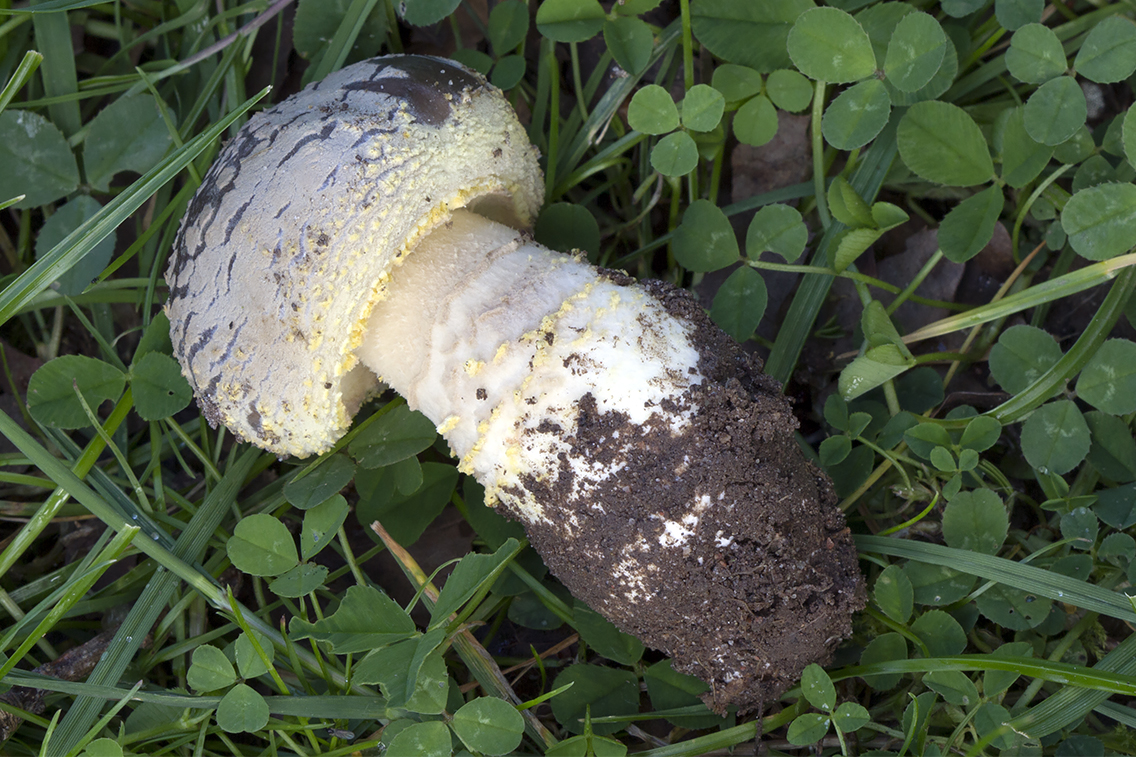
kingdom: Fungi
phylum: Basidiomycota
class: Agaricomycetes
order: Agaricales
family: Amanitaceae
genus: Amanita
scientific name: Amanita franchetii
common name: gulrandet fluesvamp
